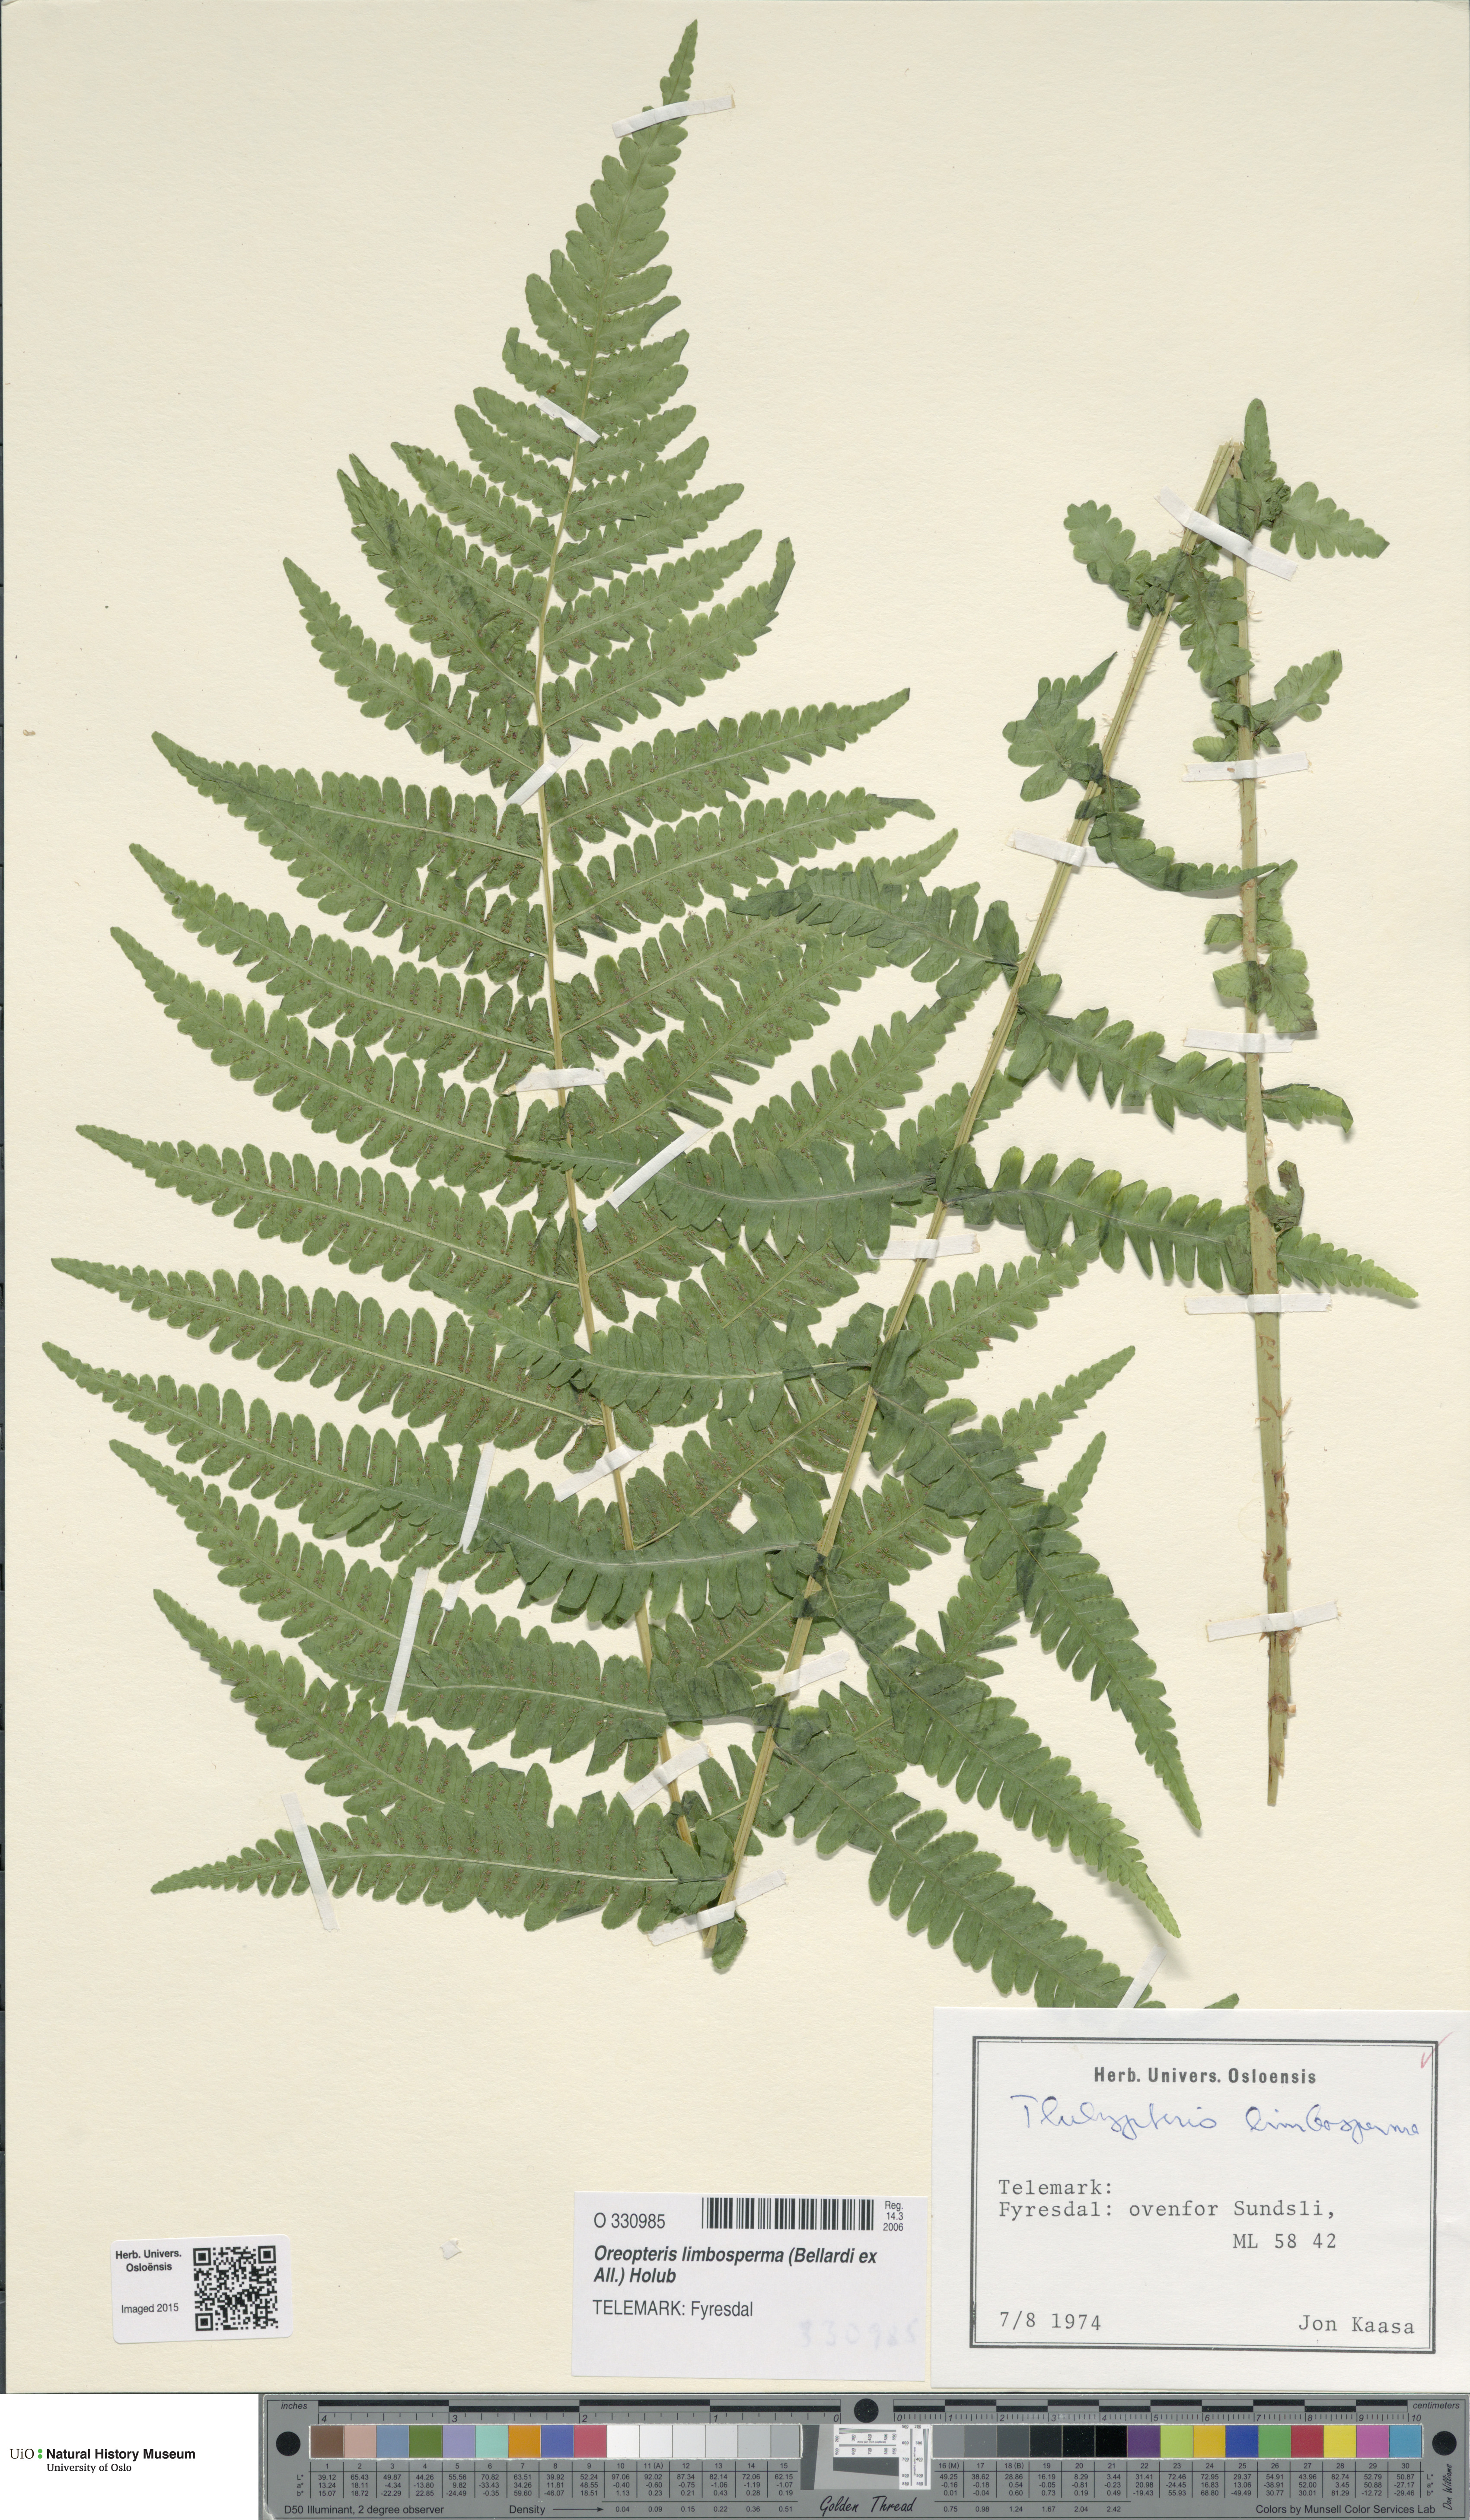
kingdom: Plantae
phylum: Tracheophyta
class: Polypodiopsida
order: Polypodiales
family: Thelypteridaceae
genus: Oreopteris
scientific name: Oreopteris limbosperma
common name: Lemon-scented fern
